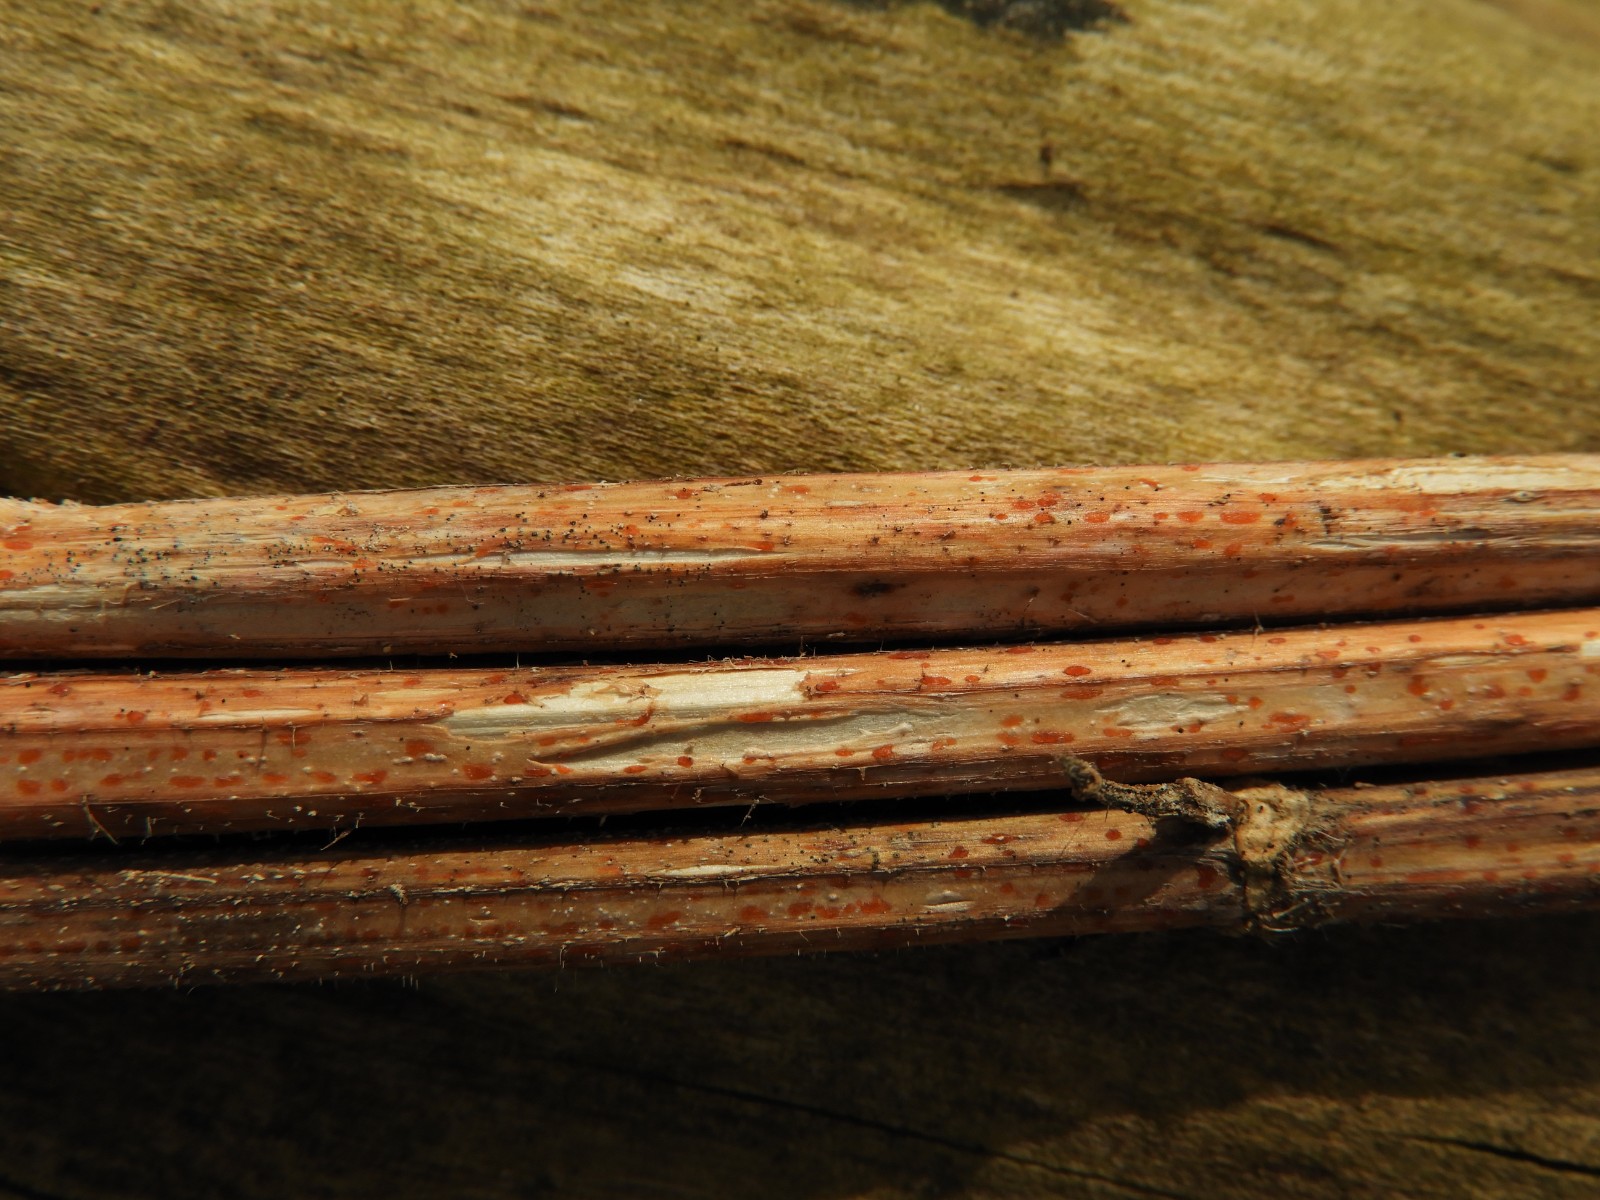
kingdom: Fungi
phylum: Ascomycota
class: Leotiomycetes
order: Helotiales
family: Calloriaceae
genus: Calloria
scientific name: Calloria urticae
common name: nælde-orangeskive
